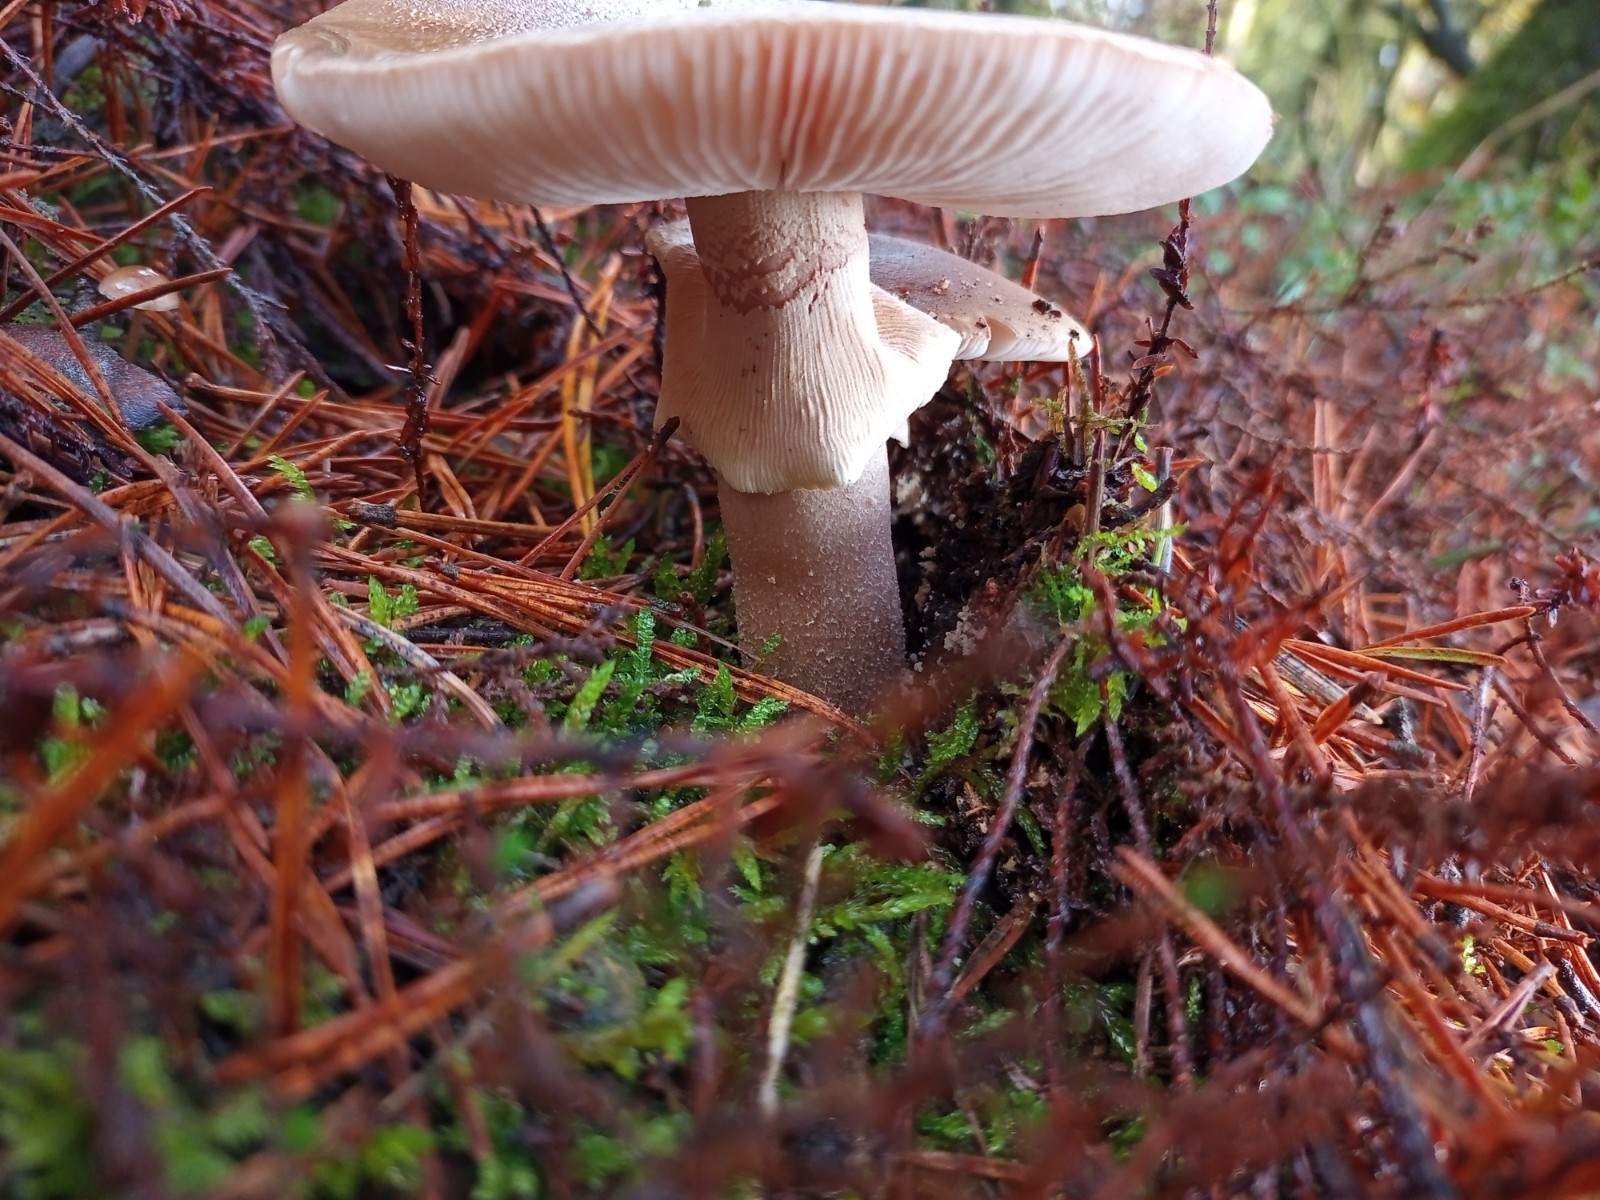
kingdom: Fungi
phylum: Basidiomycota
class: Agaricomycetes
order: Agaricales
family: Amanitaceae
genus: Amanita
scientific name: Amanita rubescens
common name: rødmende fluesvamp
